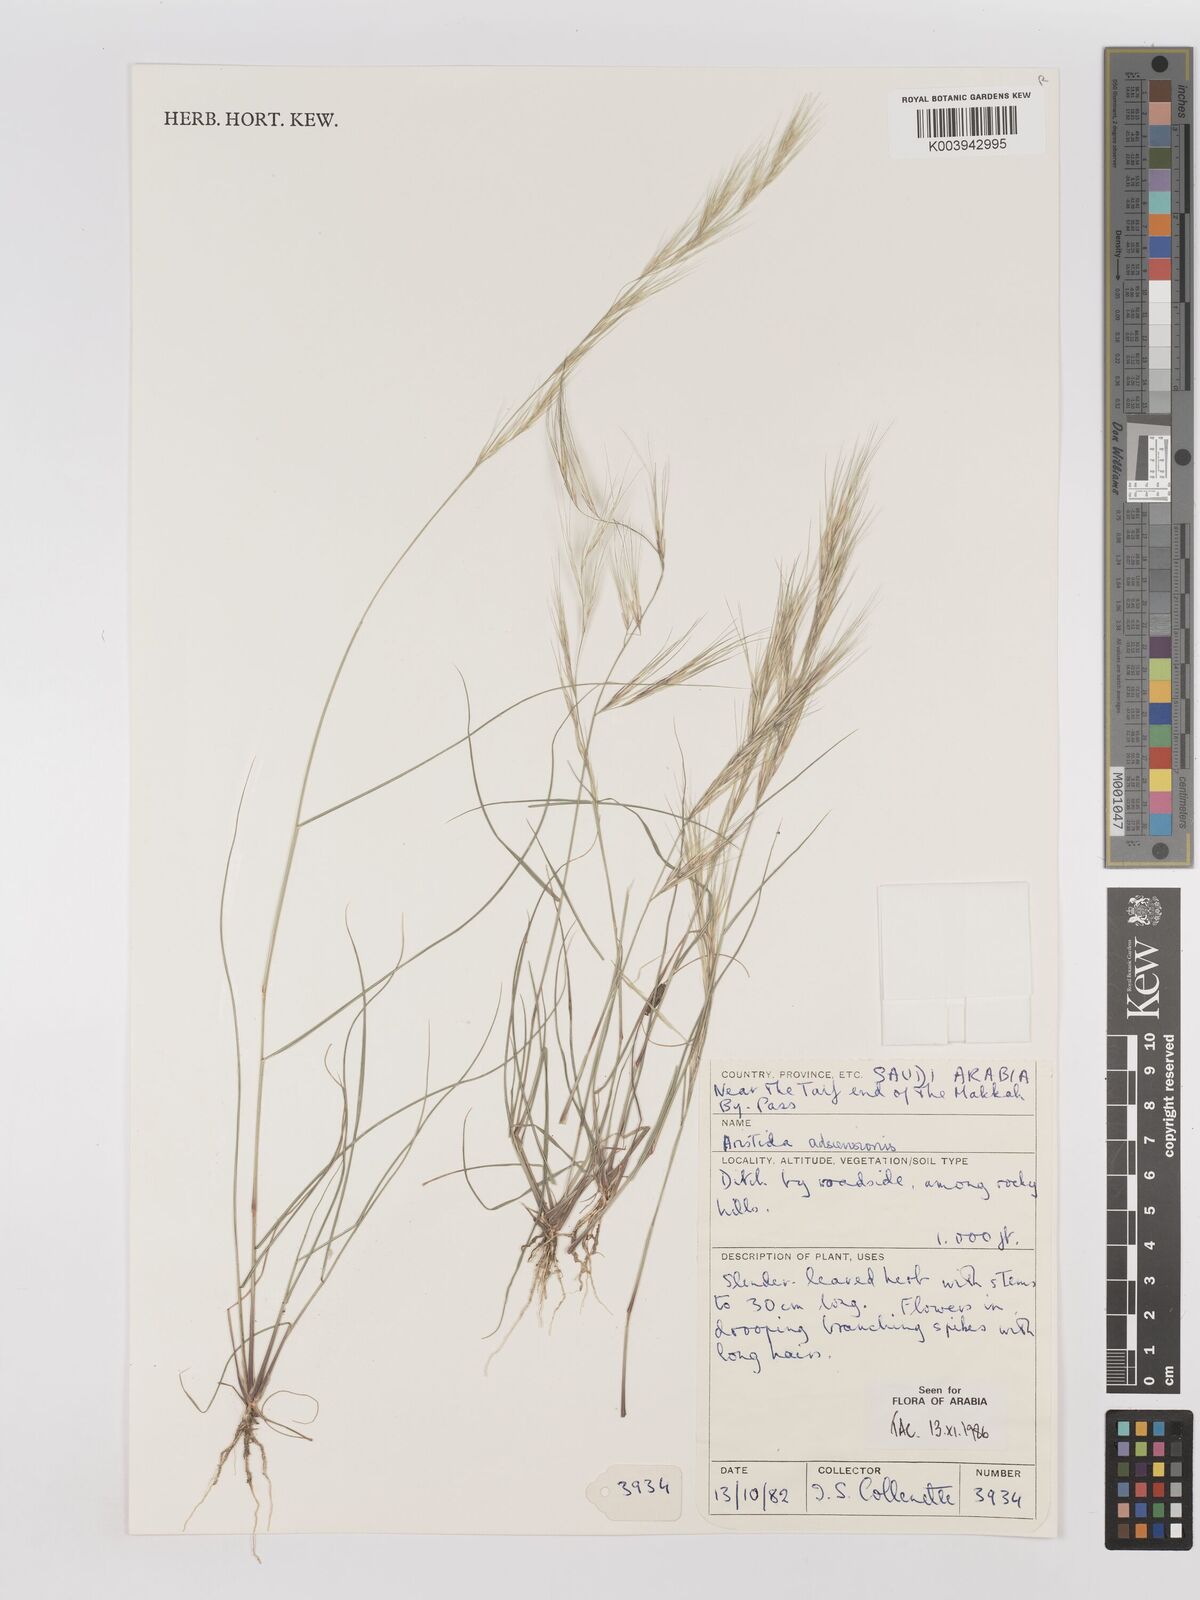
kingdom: Plantae
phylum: Tracheophyta
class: Liliopsida
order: Poales
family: Poaceae
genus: Aristida
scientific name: Aristida adscensionis
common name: Sixweeks threeawn
